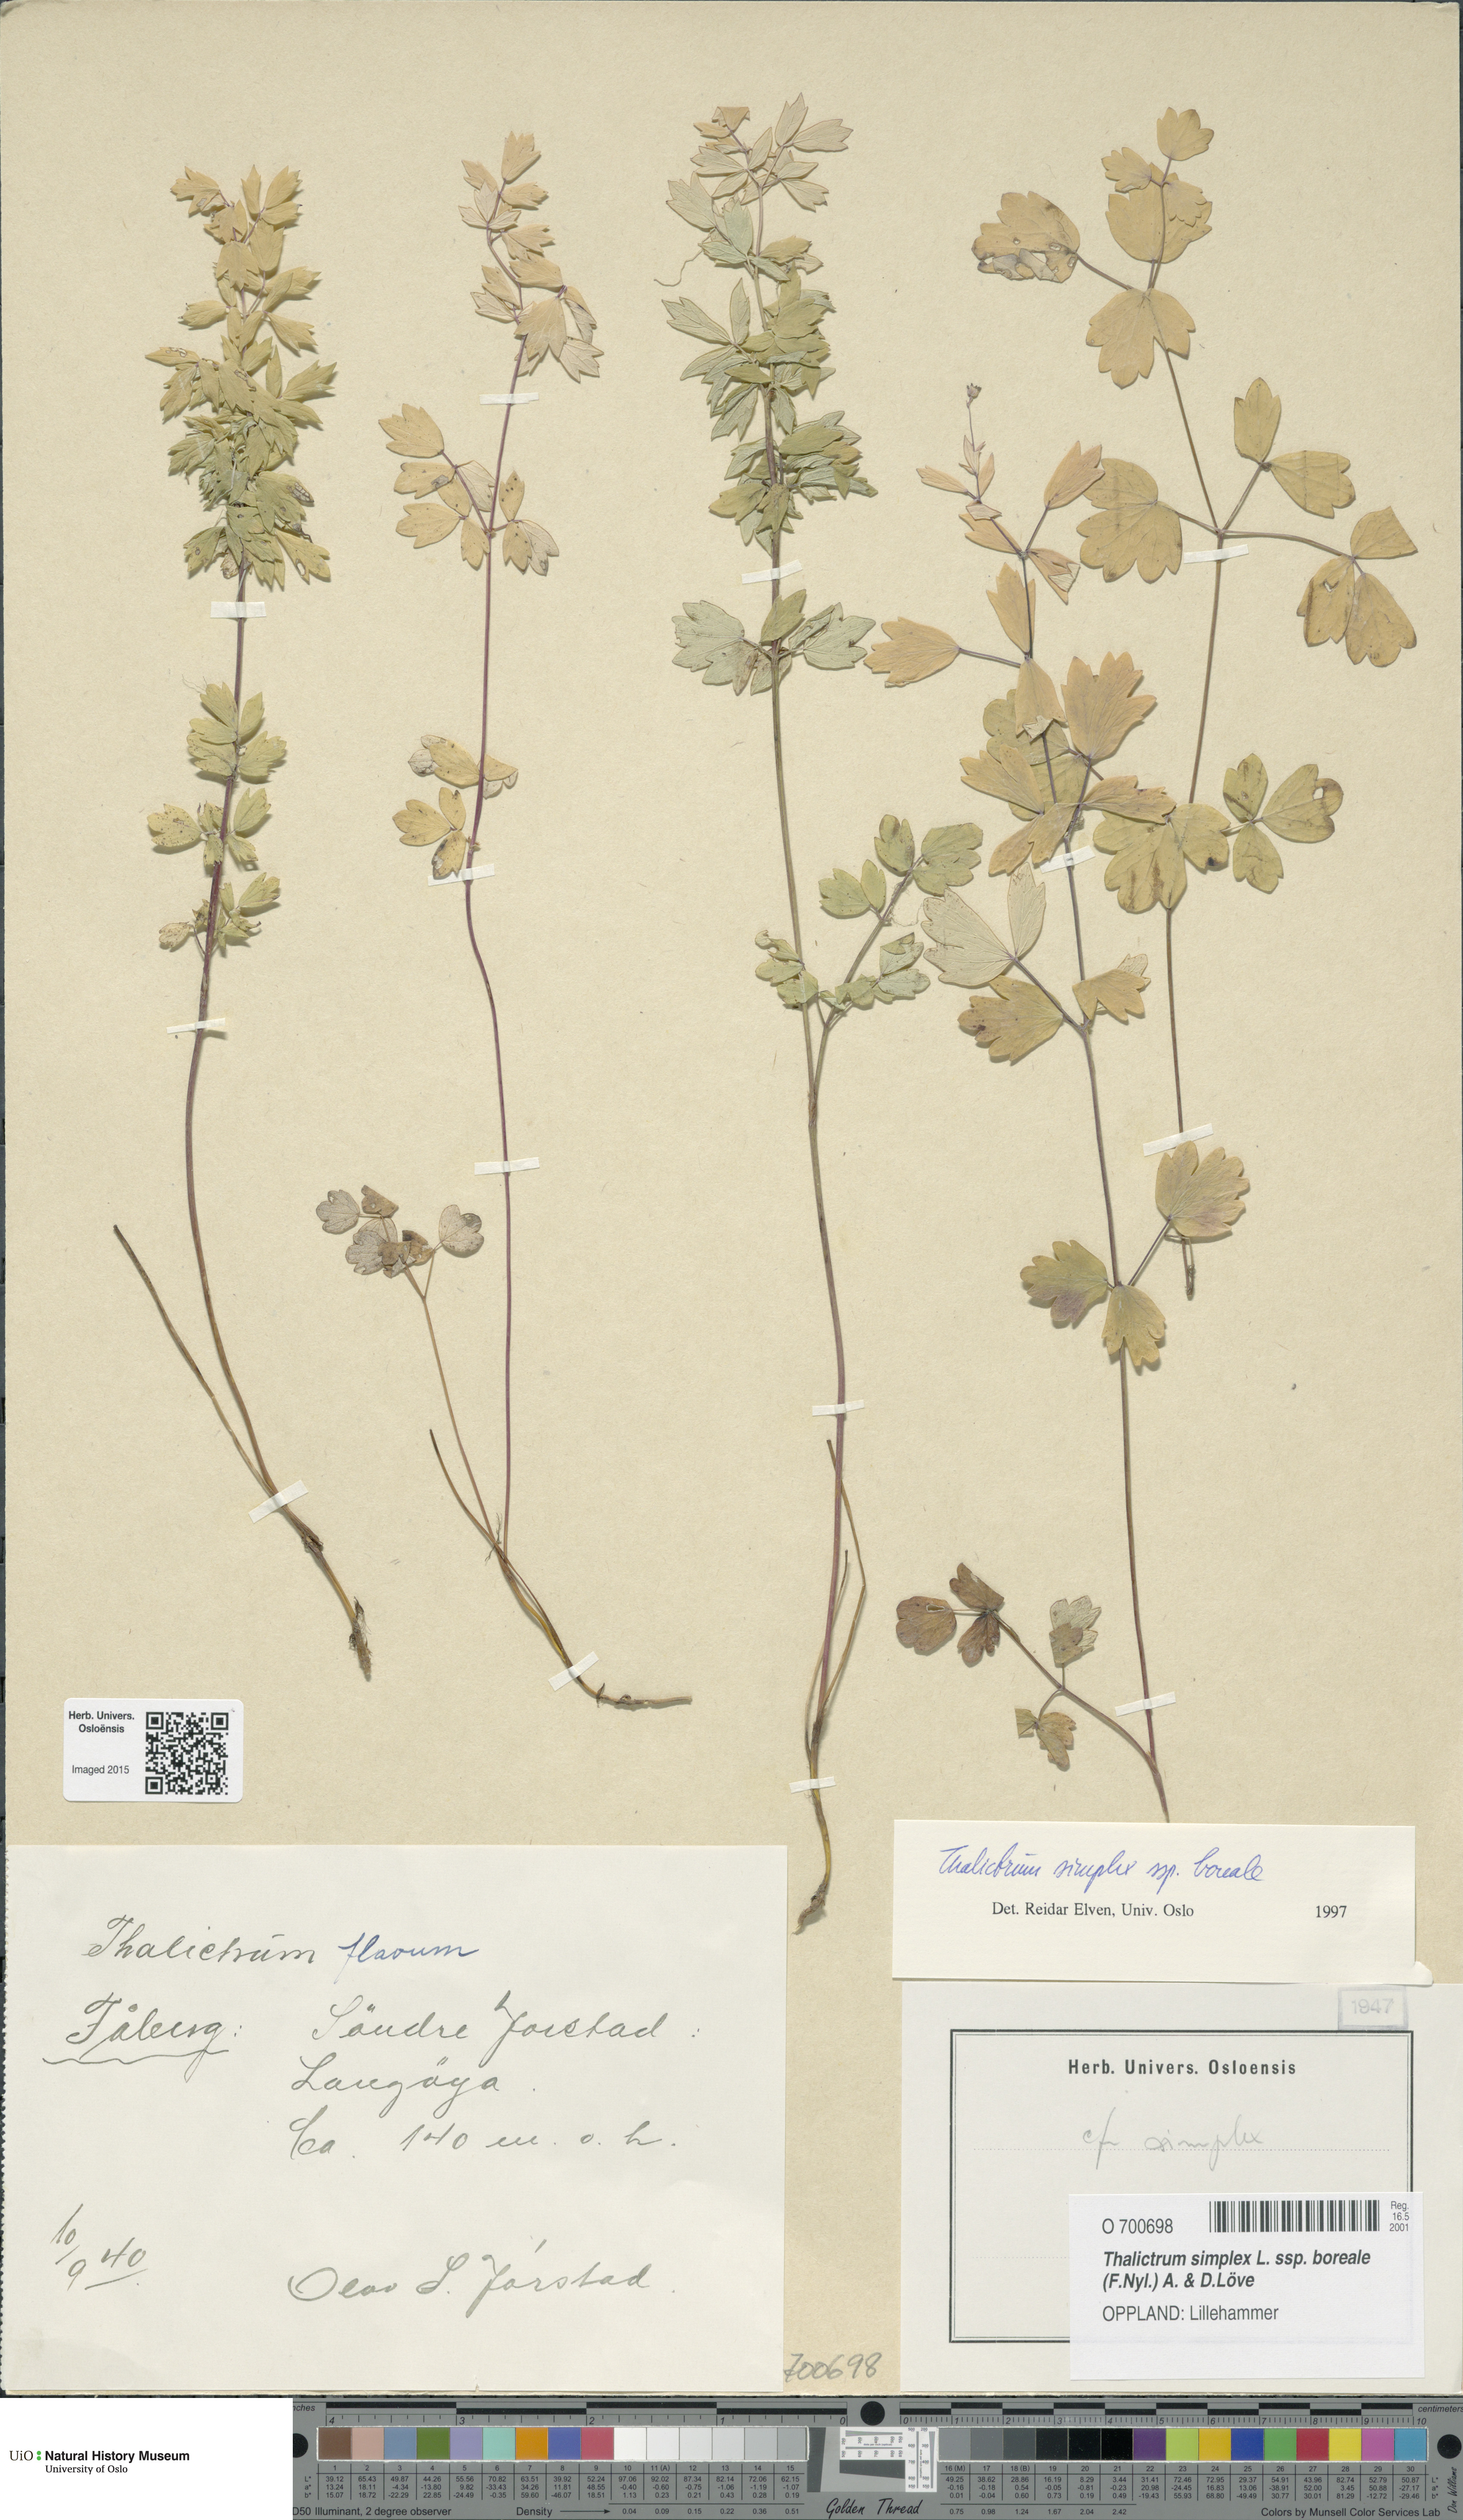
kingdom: Plantae
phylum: Tracheophyta
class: Magnoliopsida
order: Ranunculales
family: Ranunculaceae
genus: Thalictrum
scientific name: Thalictrum simplex
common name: Small meadow-rue
